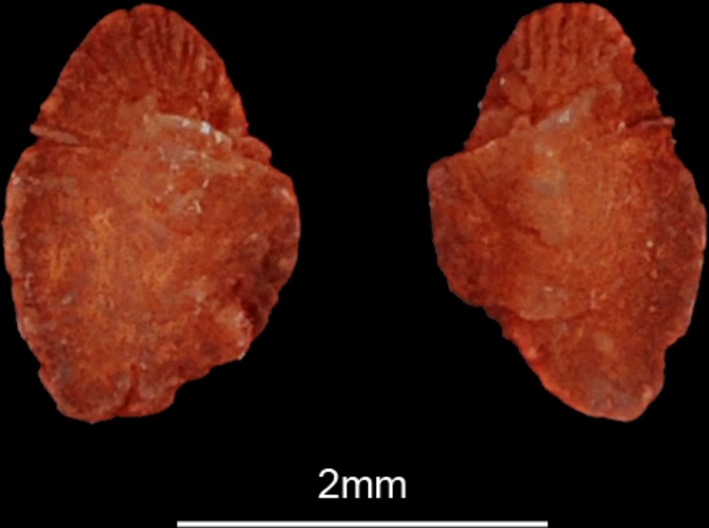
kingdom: Animalia
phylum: Chordata
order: Siluriformes
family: Mochokidae
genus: Synodontis
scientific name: Synodontis serratus
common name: Shield-head catfish
